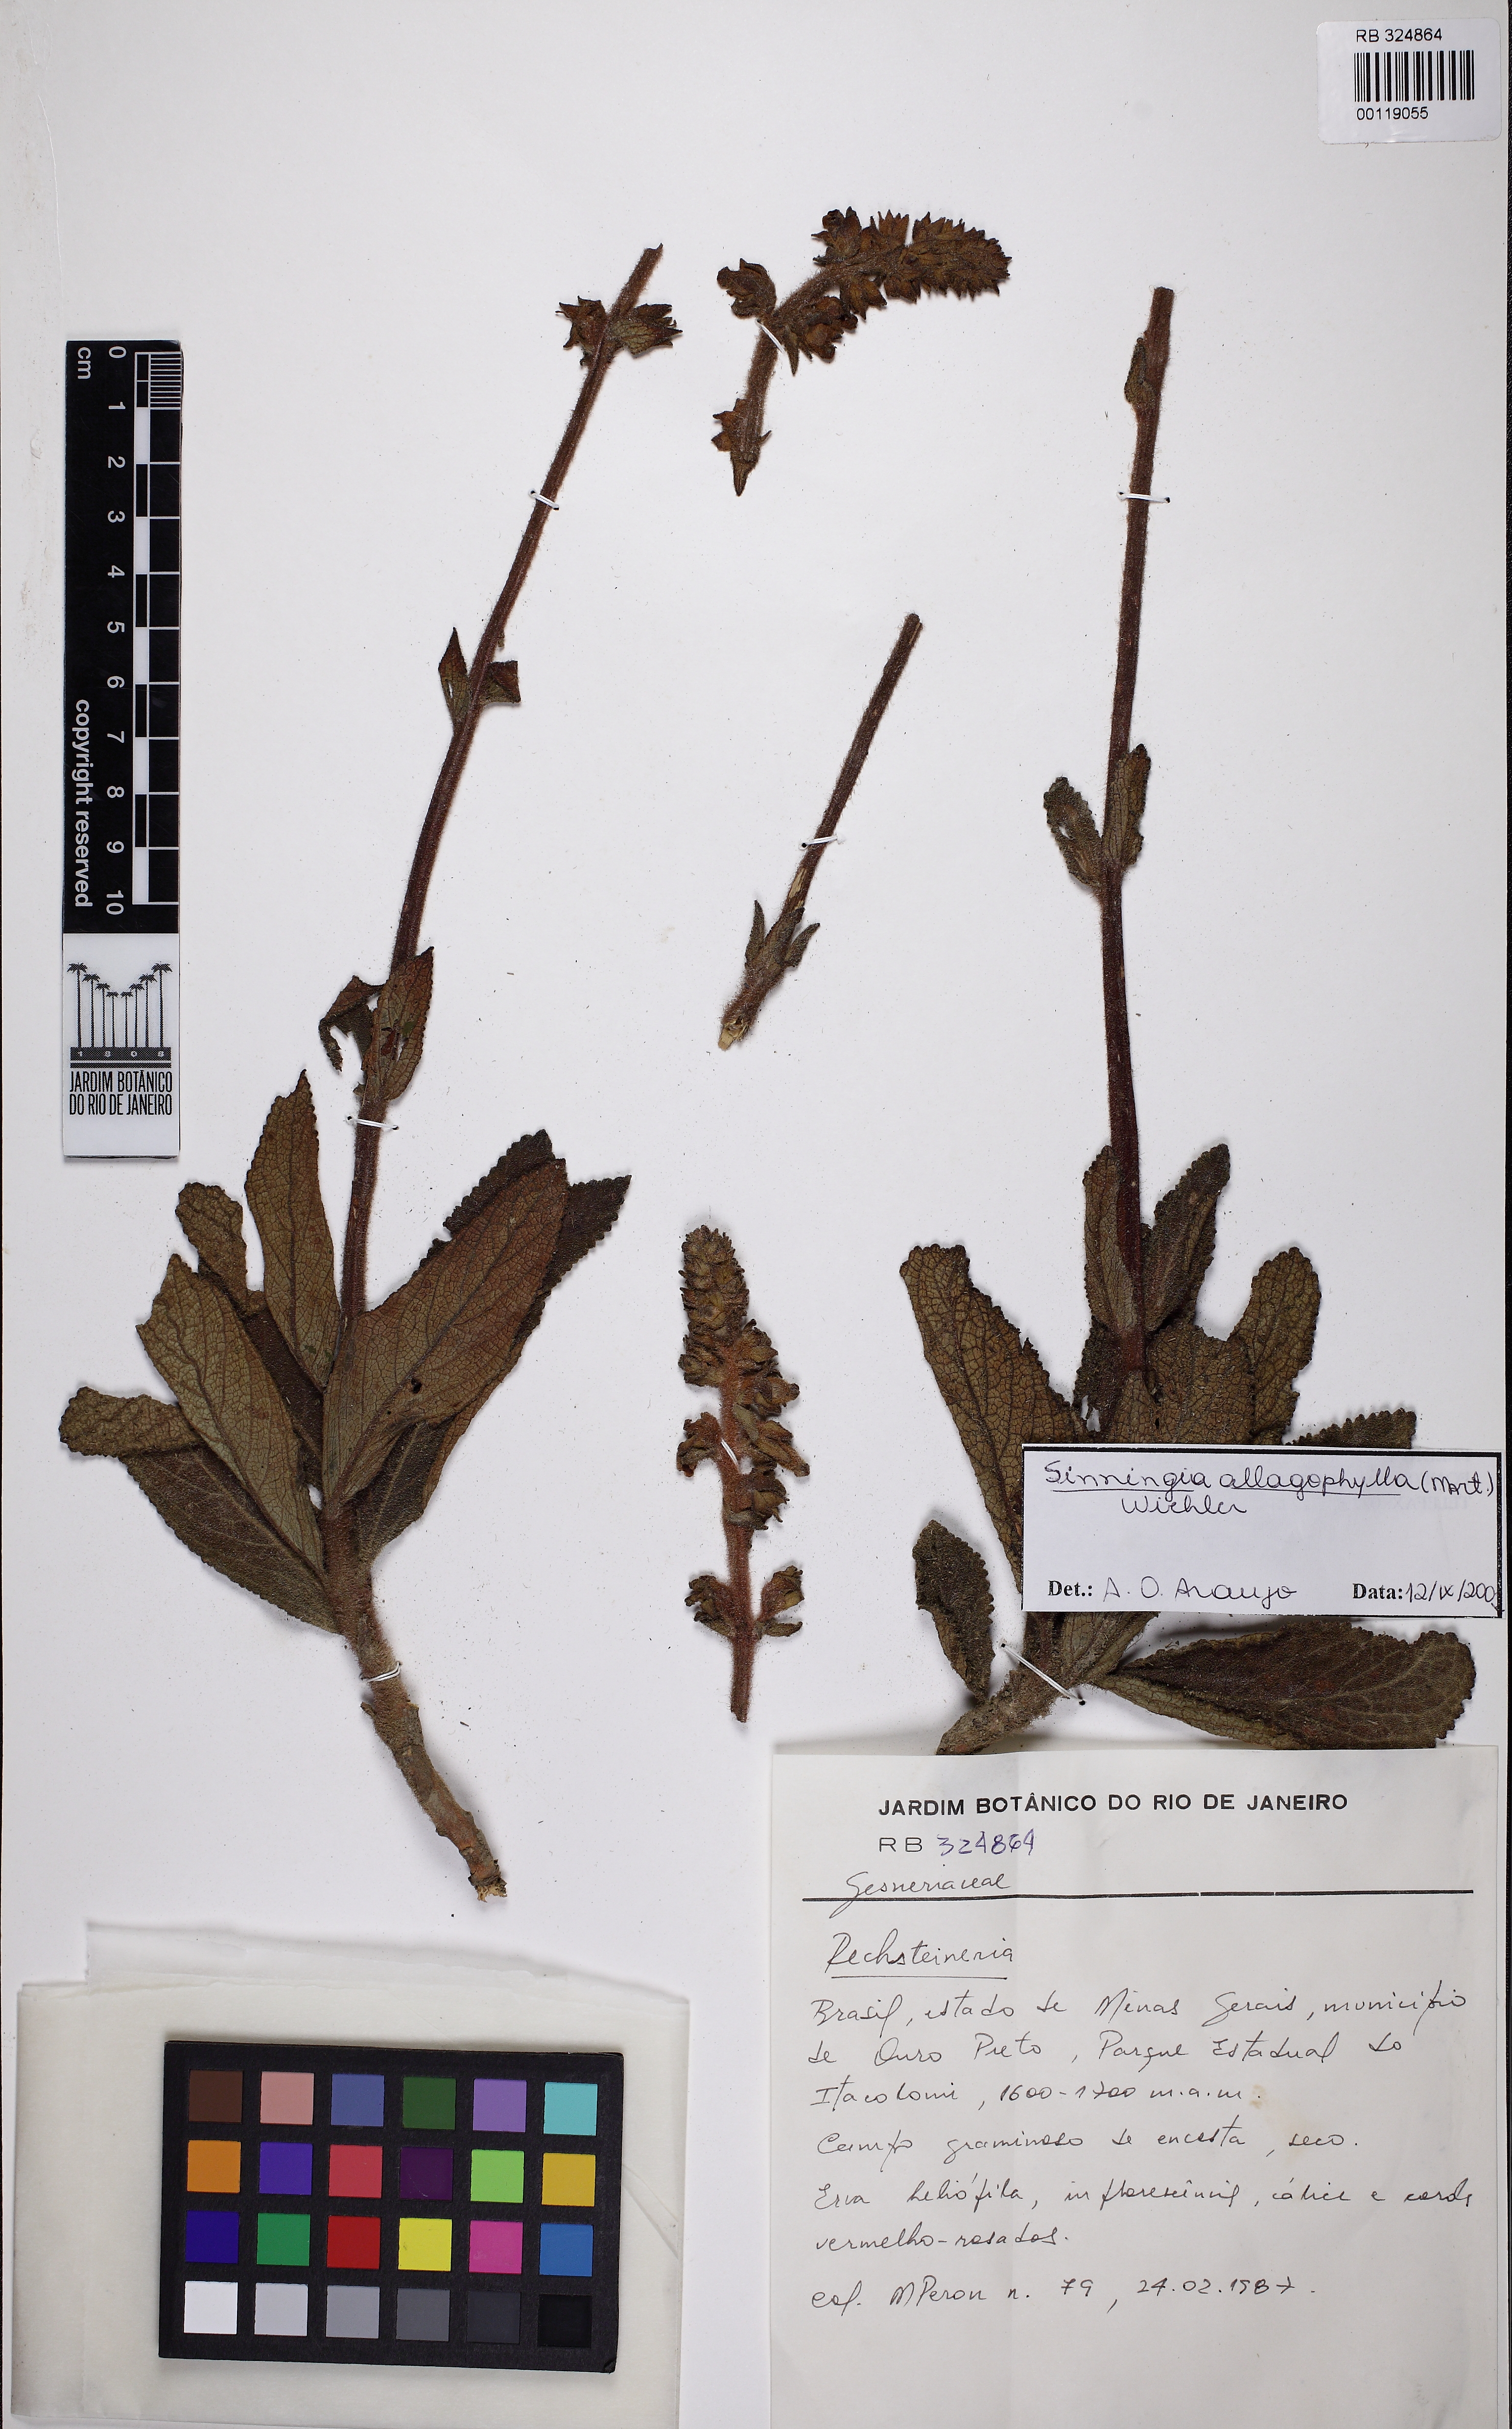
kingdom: Plantae
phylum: Tracheophyta
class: Magnoliopsida
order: Lamiales
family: Gesneriaceae
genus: Sinningia
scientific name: Sinningia allagophylla
